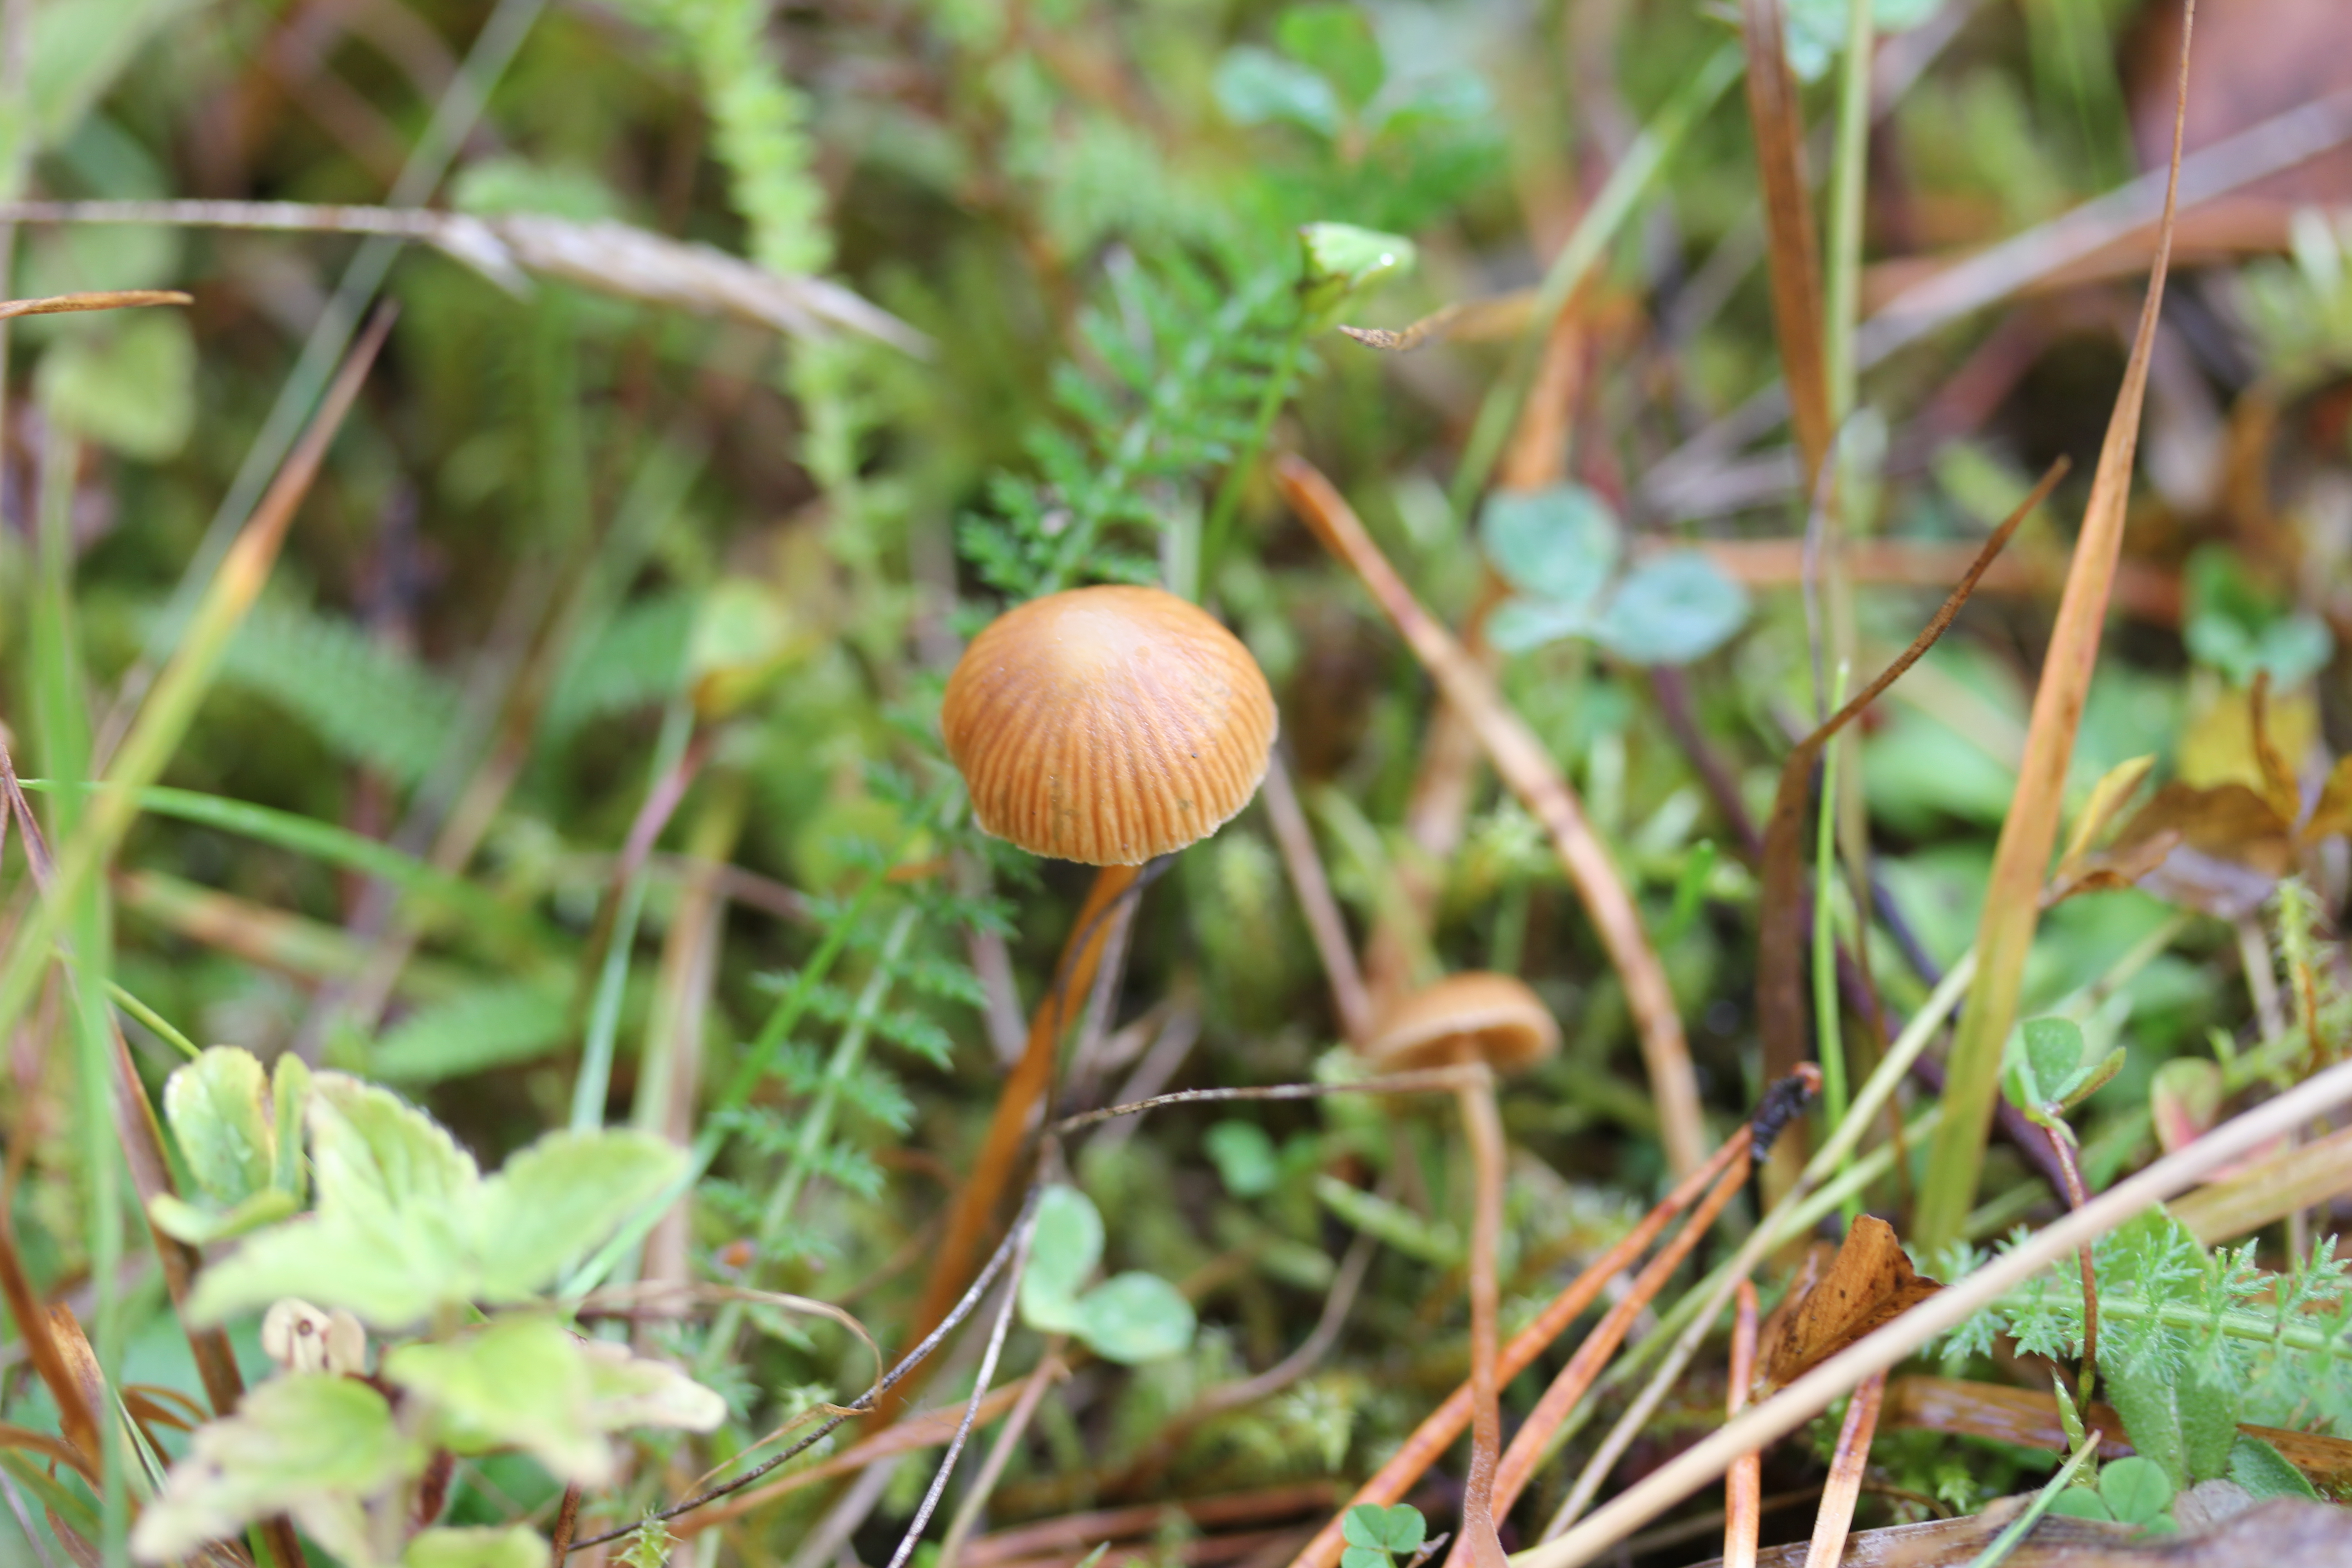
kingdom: Fungi
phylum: Basidiomycota
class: Agaricomycetes
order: Agaricales
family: Hymenogastraceae
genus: Galerina
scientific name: Galerina vittiformis
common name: Hairy leg bell
